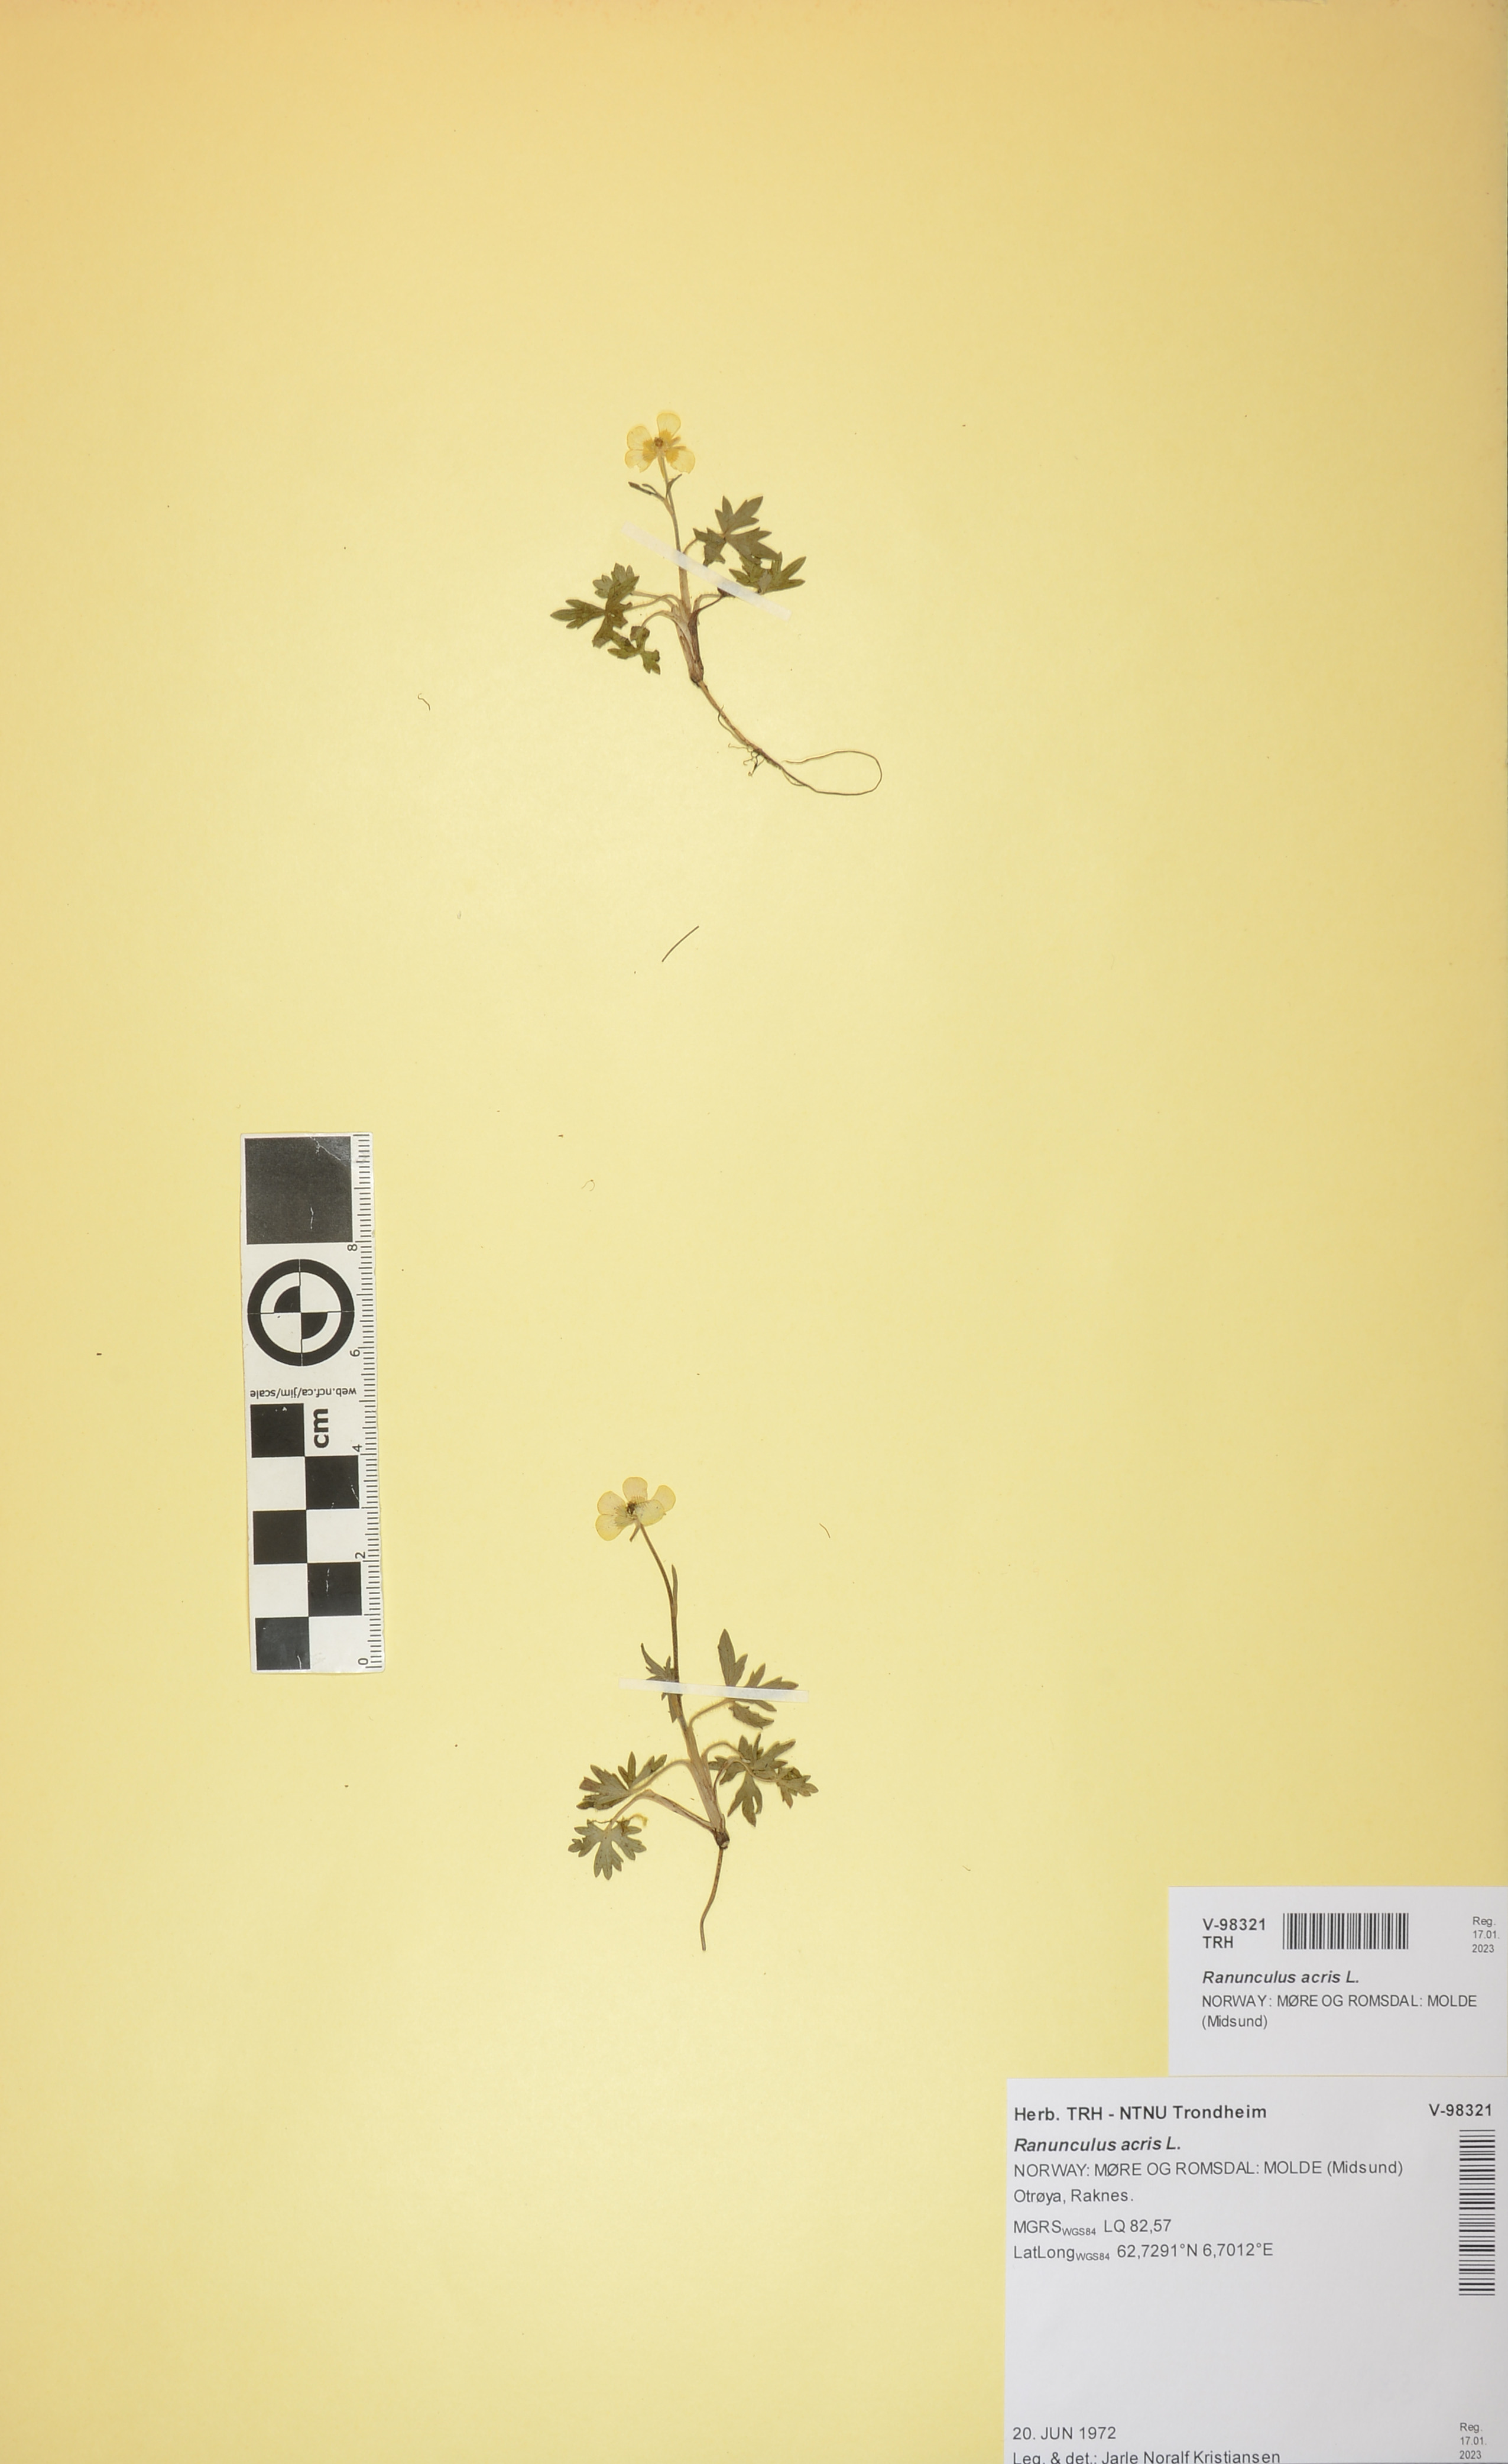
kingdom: Plantae
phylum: Tracheophyta
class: Magnoliopsida
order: Ranunculales
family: Ranunculaceae
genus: Ranunculus
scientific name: Ranunculus acris
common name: Meadow buttercup
